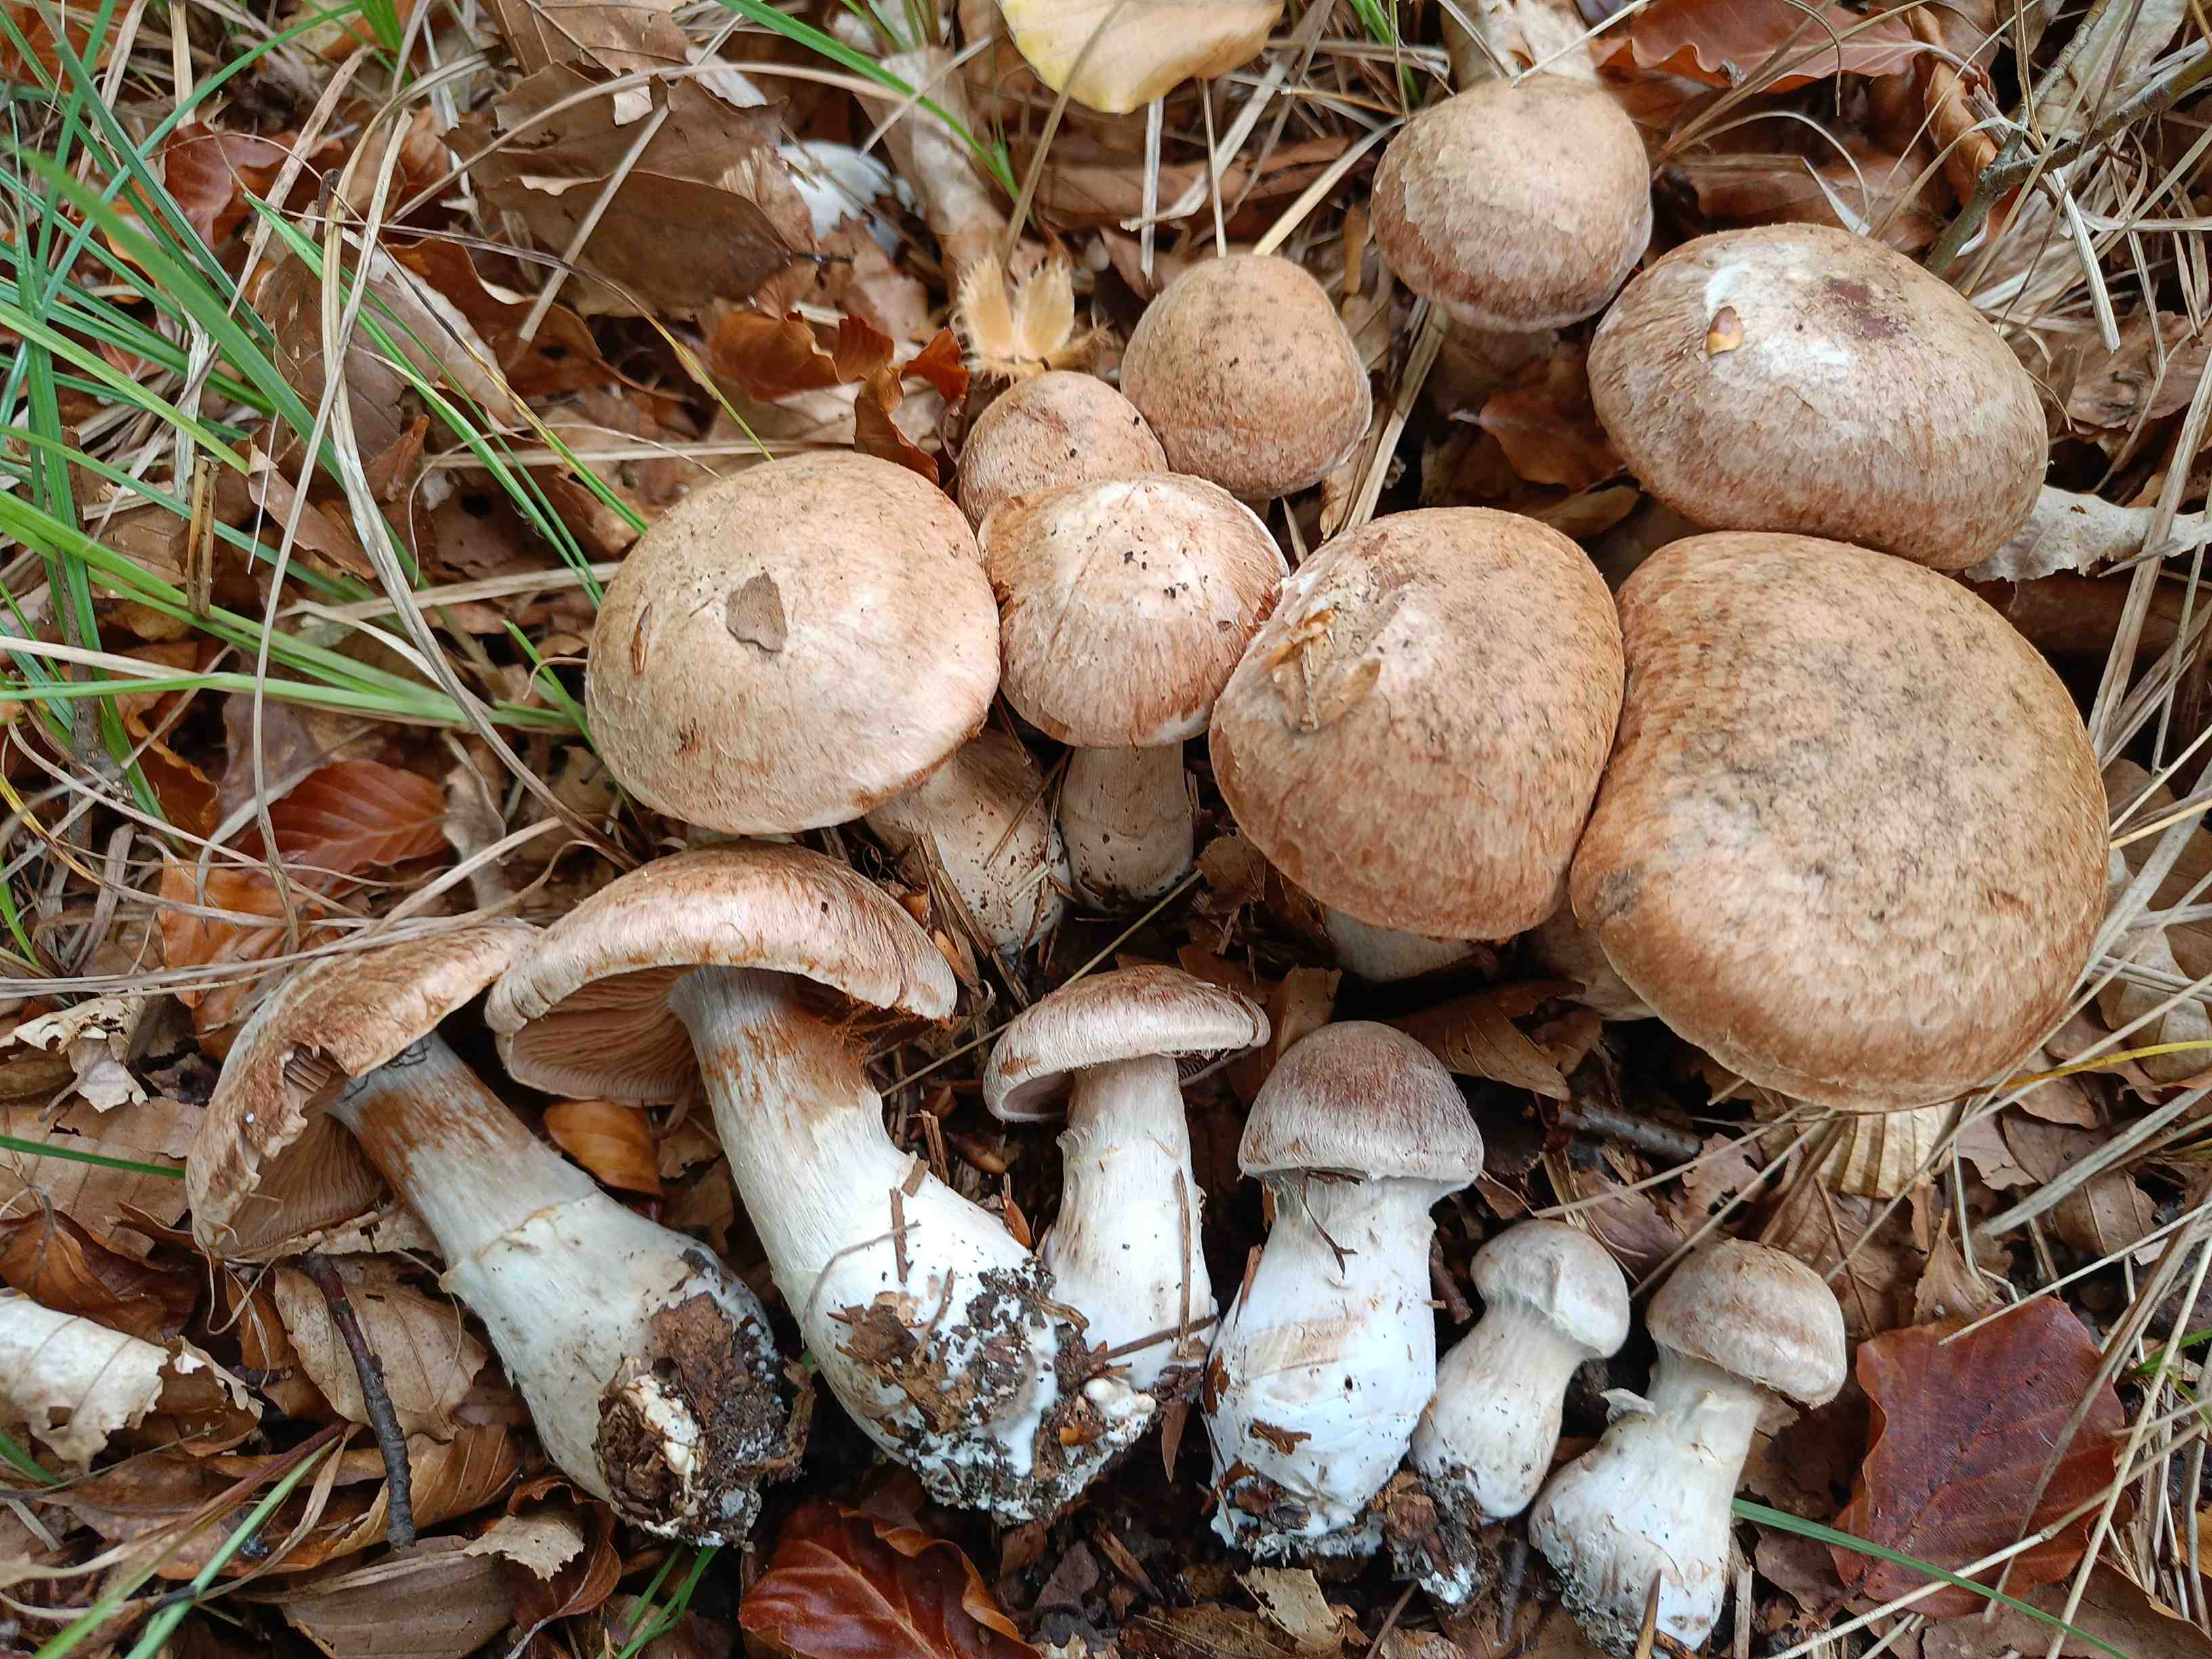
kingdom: Fungi
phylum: Basidiomycota
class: Agaricomycetes
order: Agaricales
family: Cortinariaceae
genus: Cortinarius
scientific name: Cortinarius sordescens
